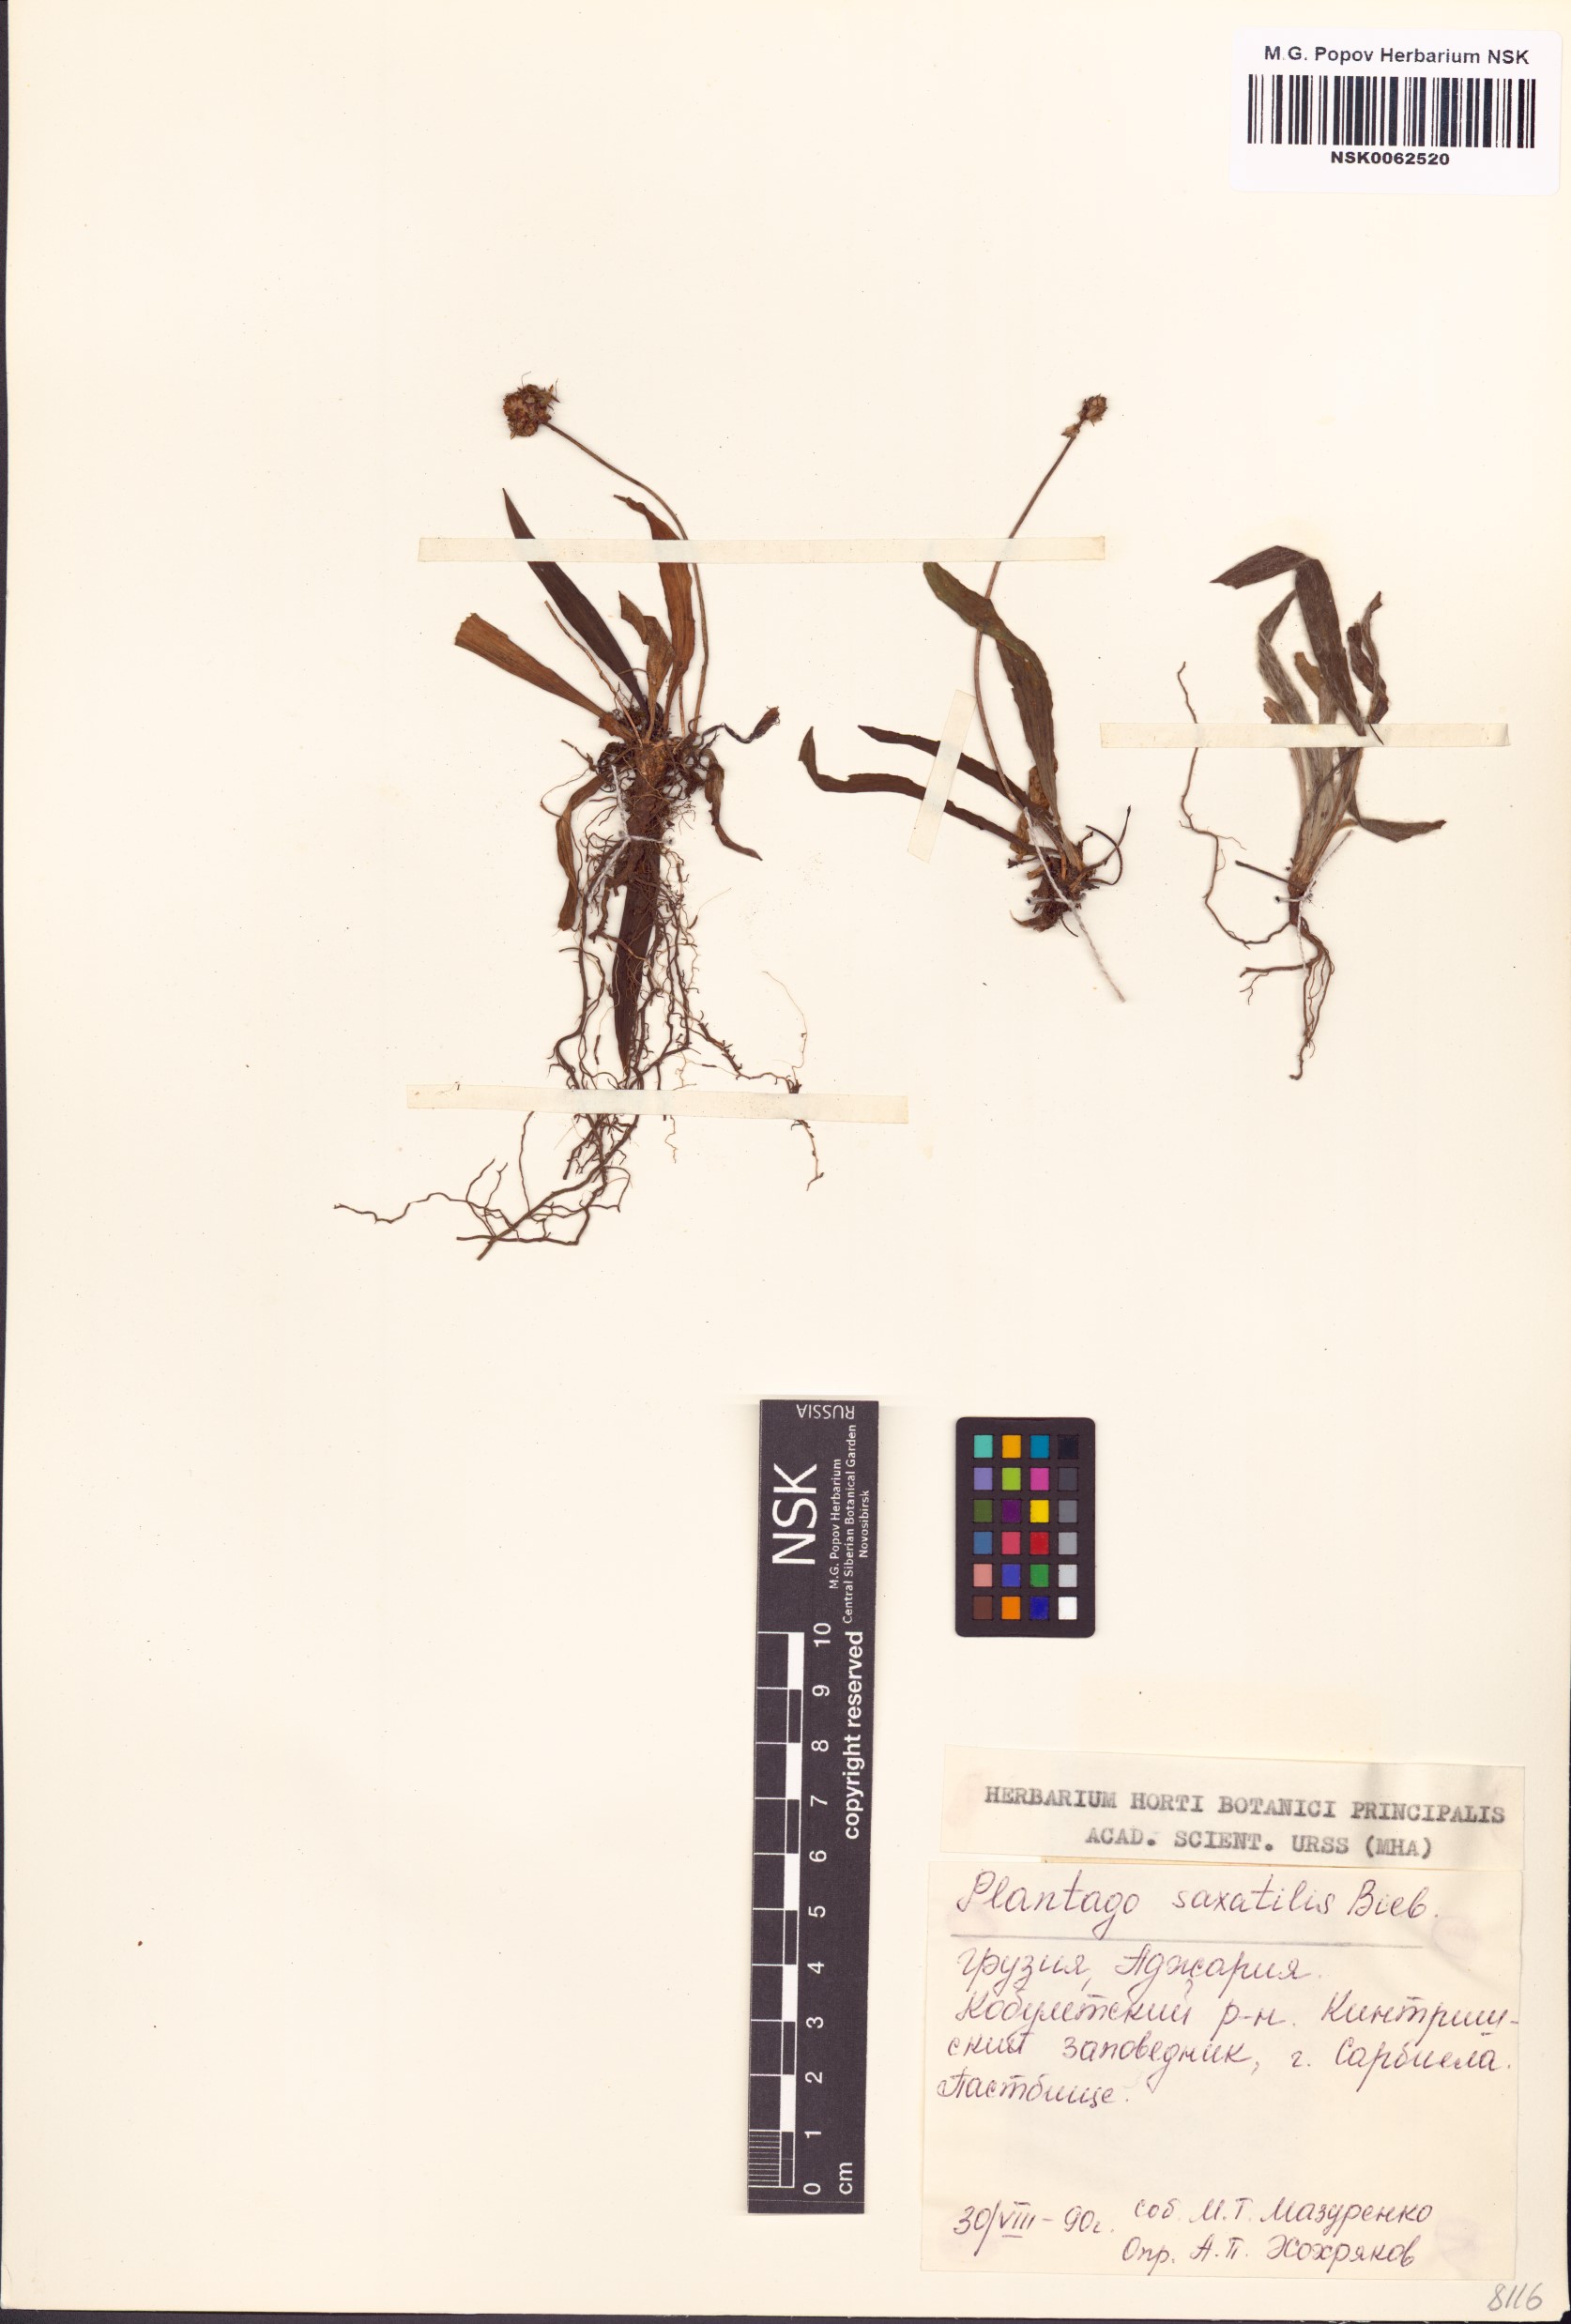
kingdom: Plantae
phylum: Tracheophyta
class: Magnoliopsida
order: Lamiales
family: Plantaginaceae
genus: Plantago
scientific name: Plantago atrata
